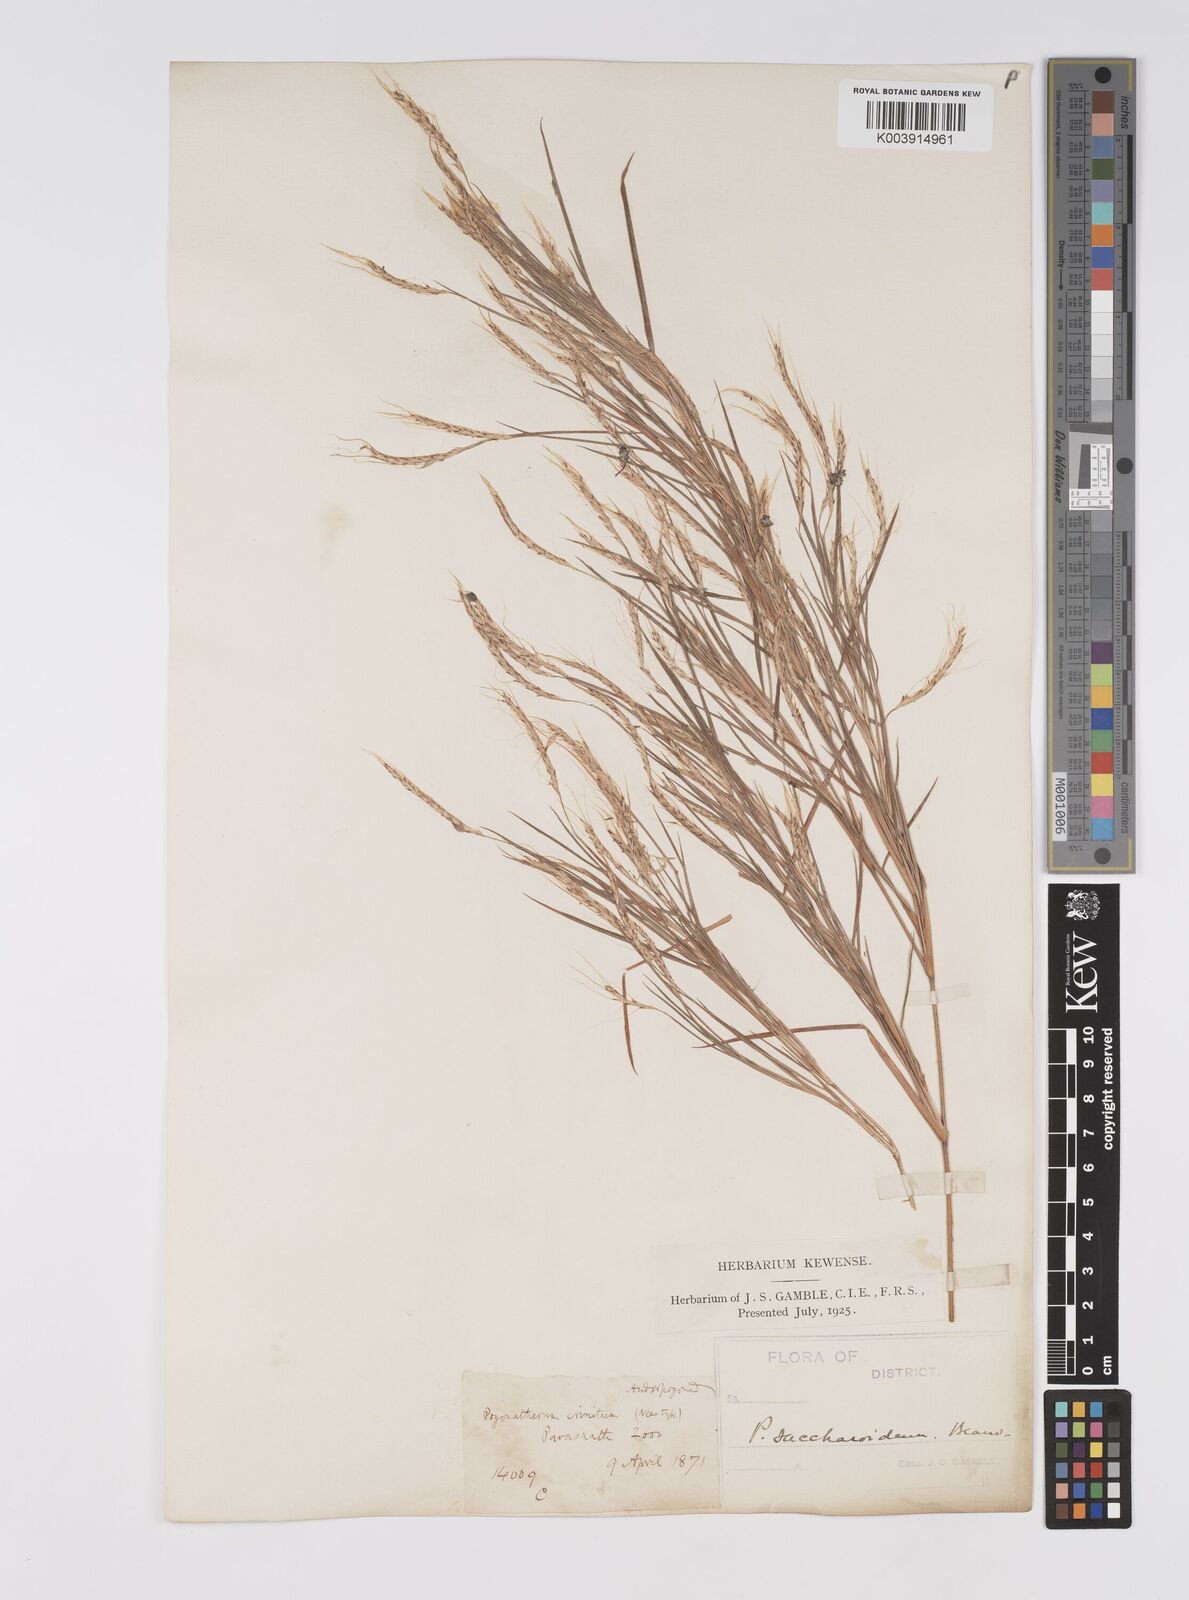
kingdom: Plantae
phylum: Tracheophyta
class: Liliopsida
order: Poales
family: Poaceae
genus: Pogonatherum
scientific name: Pogonatherum paniceum
